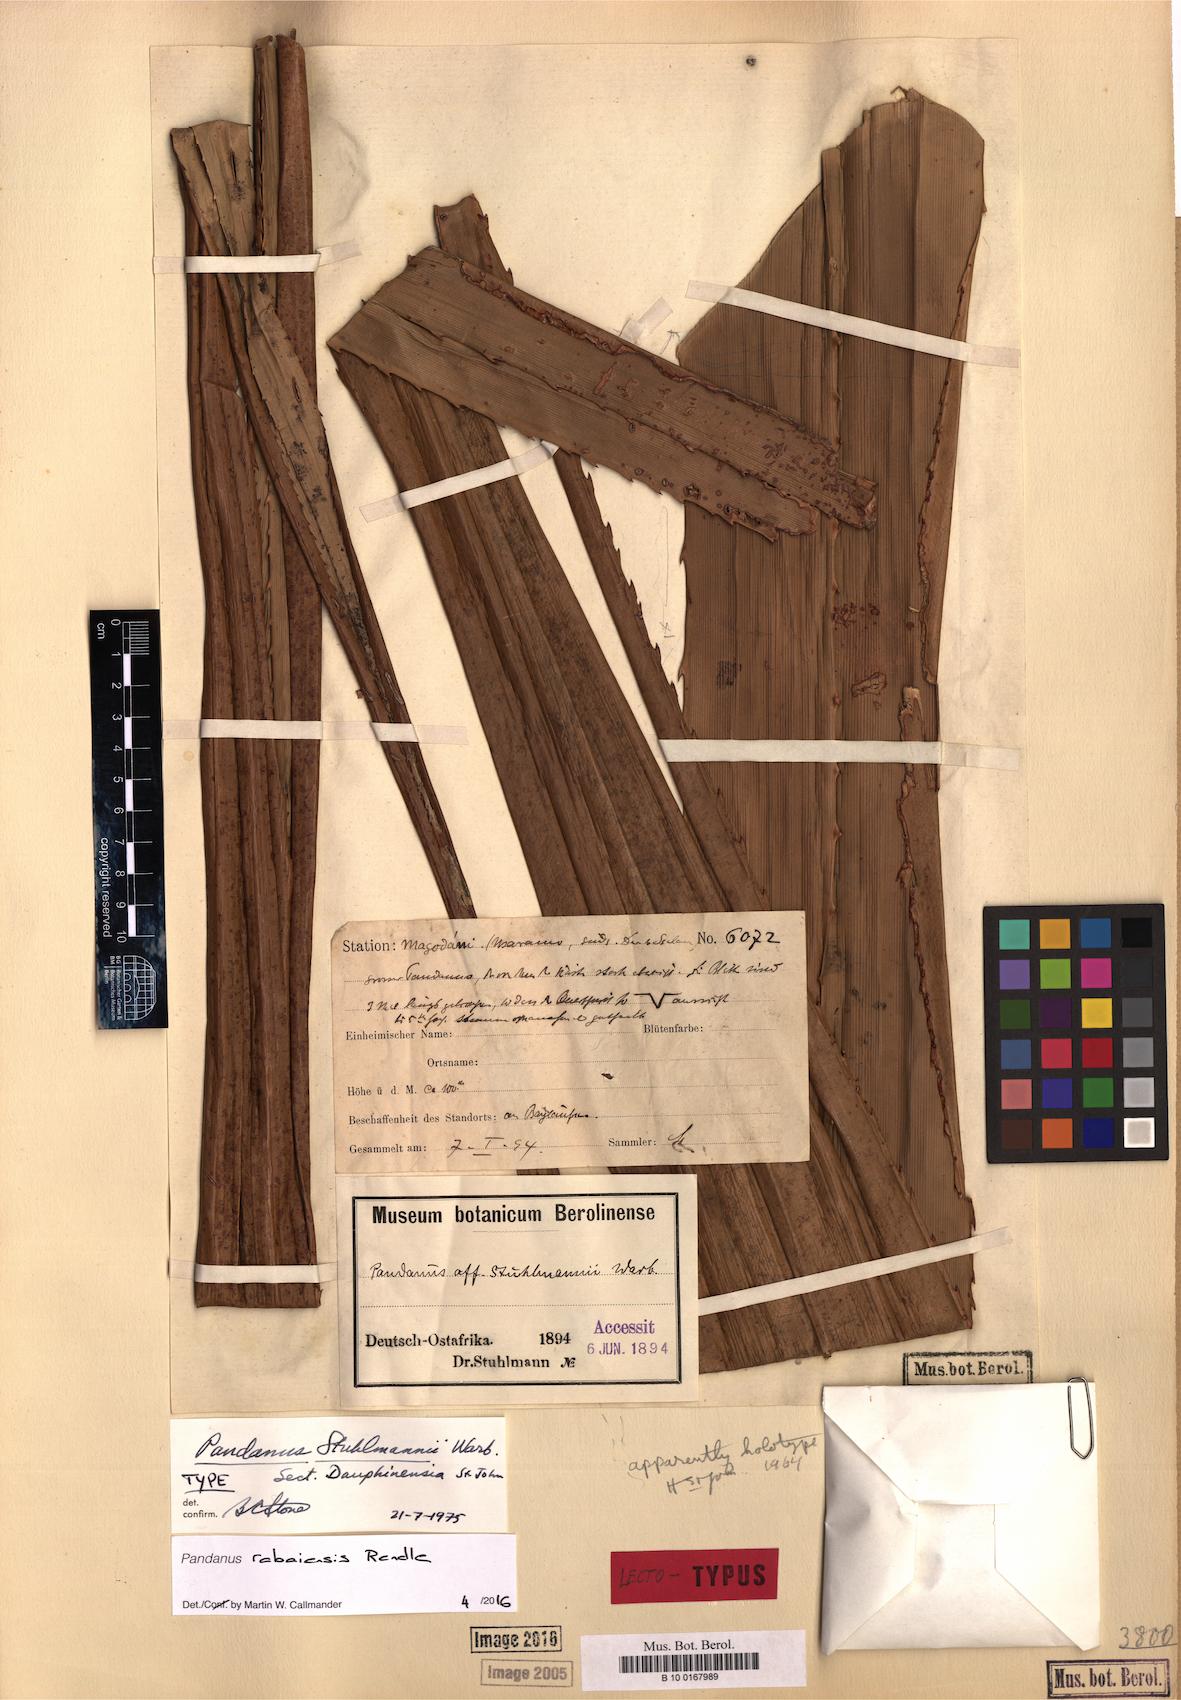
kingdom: Plantae
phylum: Tracheophyta
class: Liliopsida
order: Pandanales
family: Pandanaceae
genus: Pandanus
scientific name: Pandanus rabaiensis
